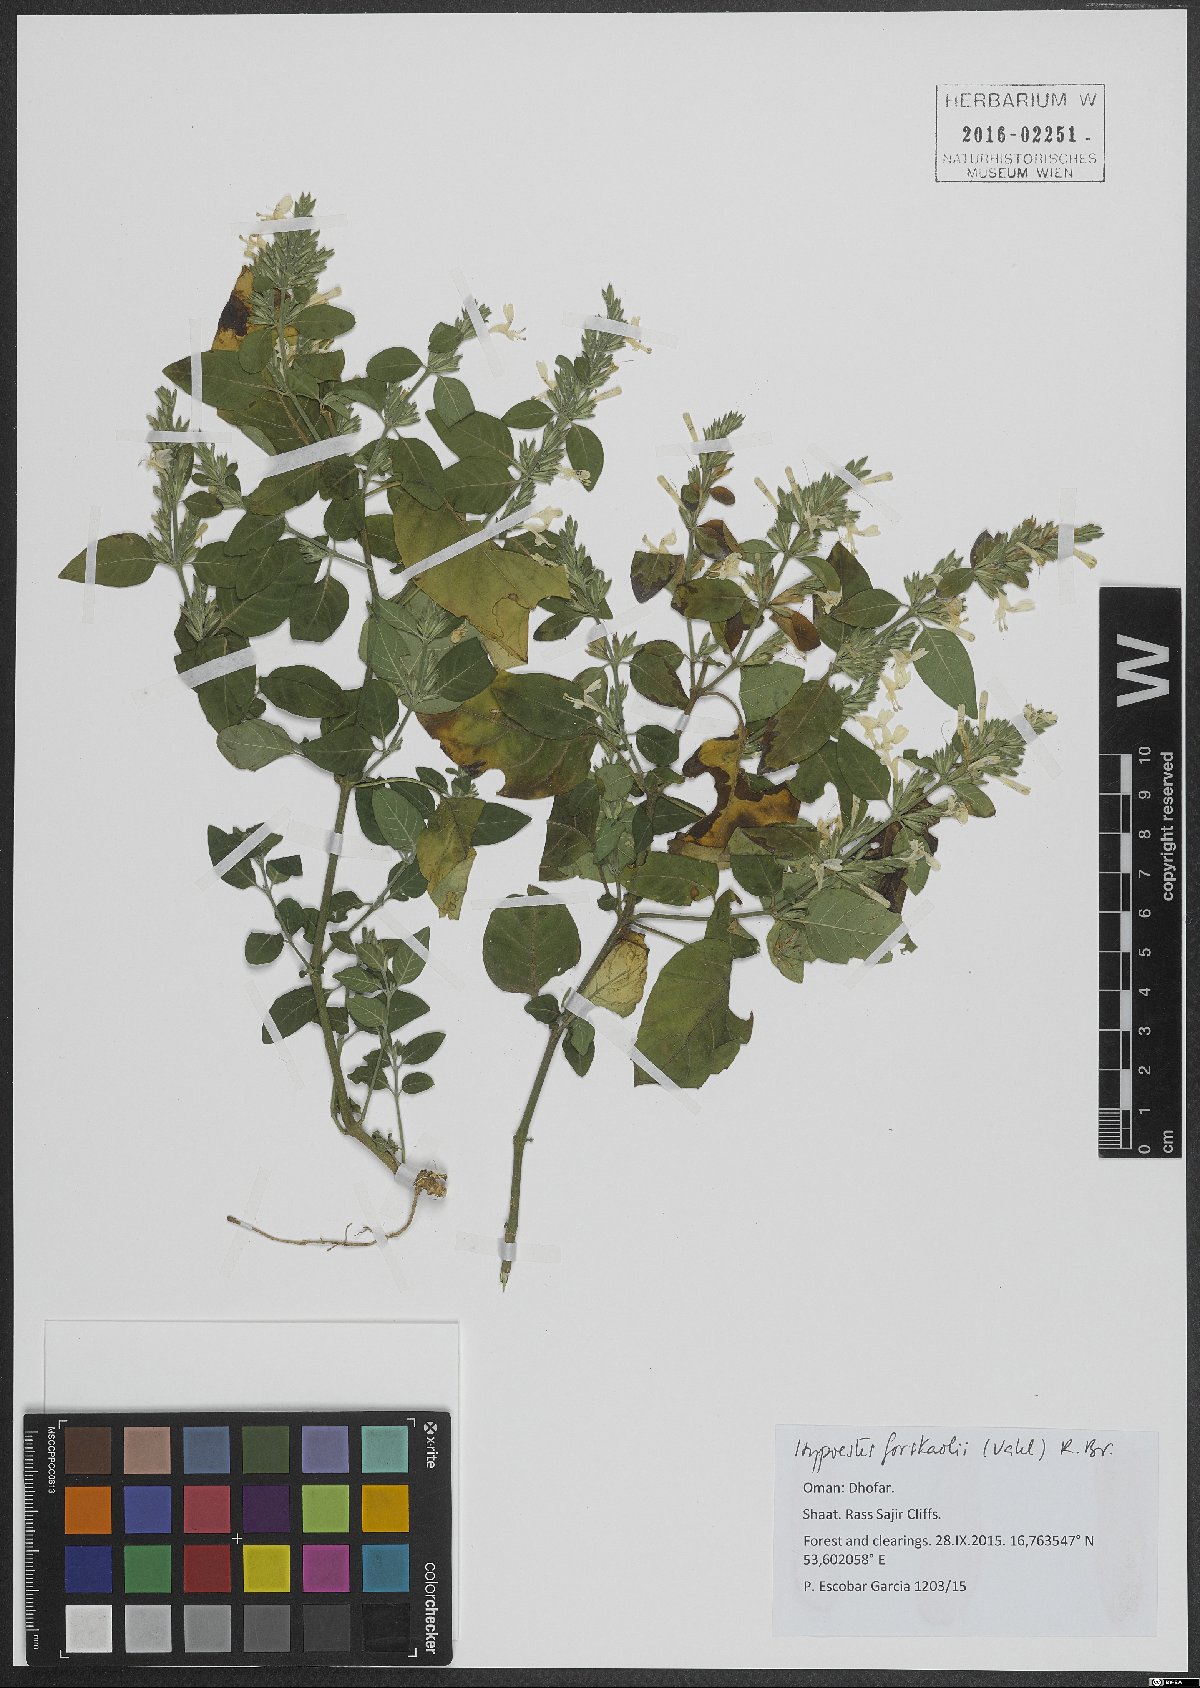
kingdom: Plantae
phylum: Tracheophyta
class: Magnoliopsida
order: Lamiales
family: Acanthaceae
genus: Hypoestes
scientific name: Hypoestes forskaolii
